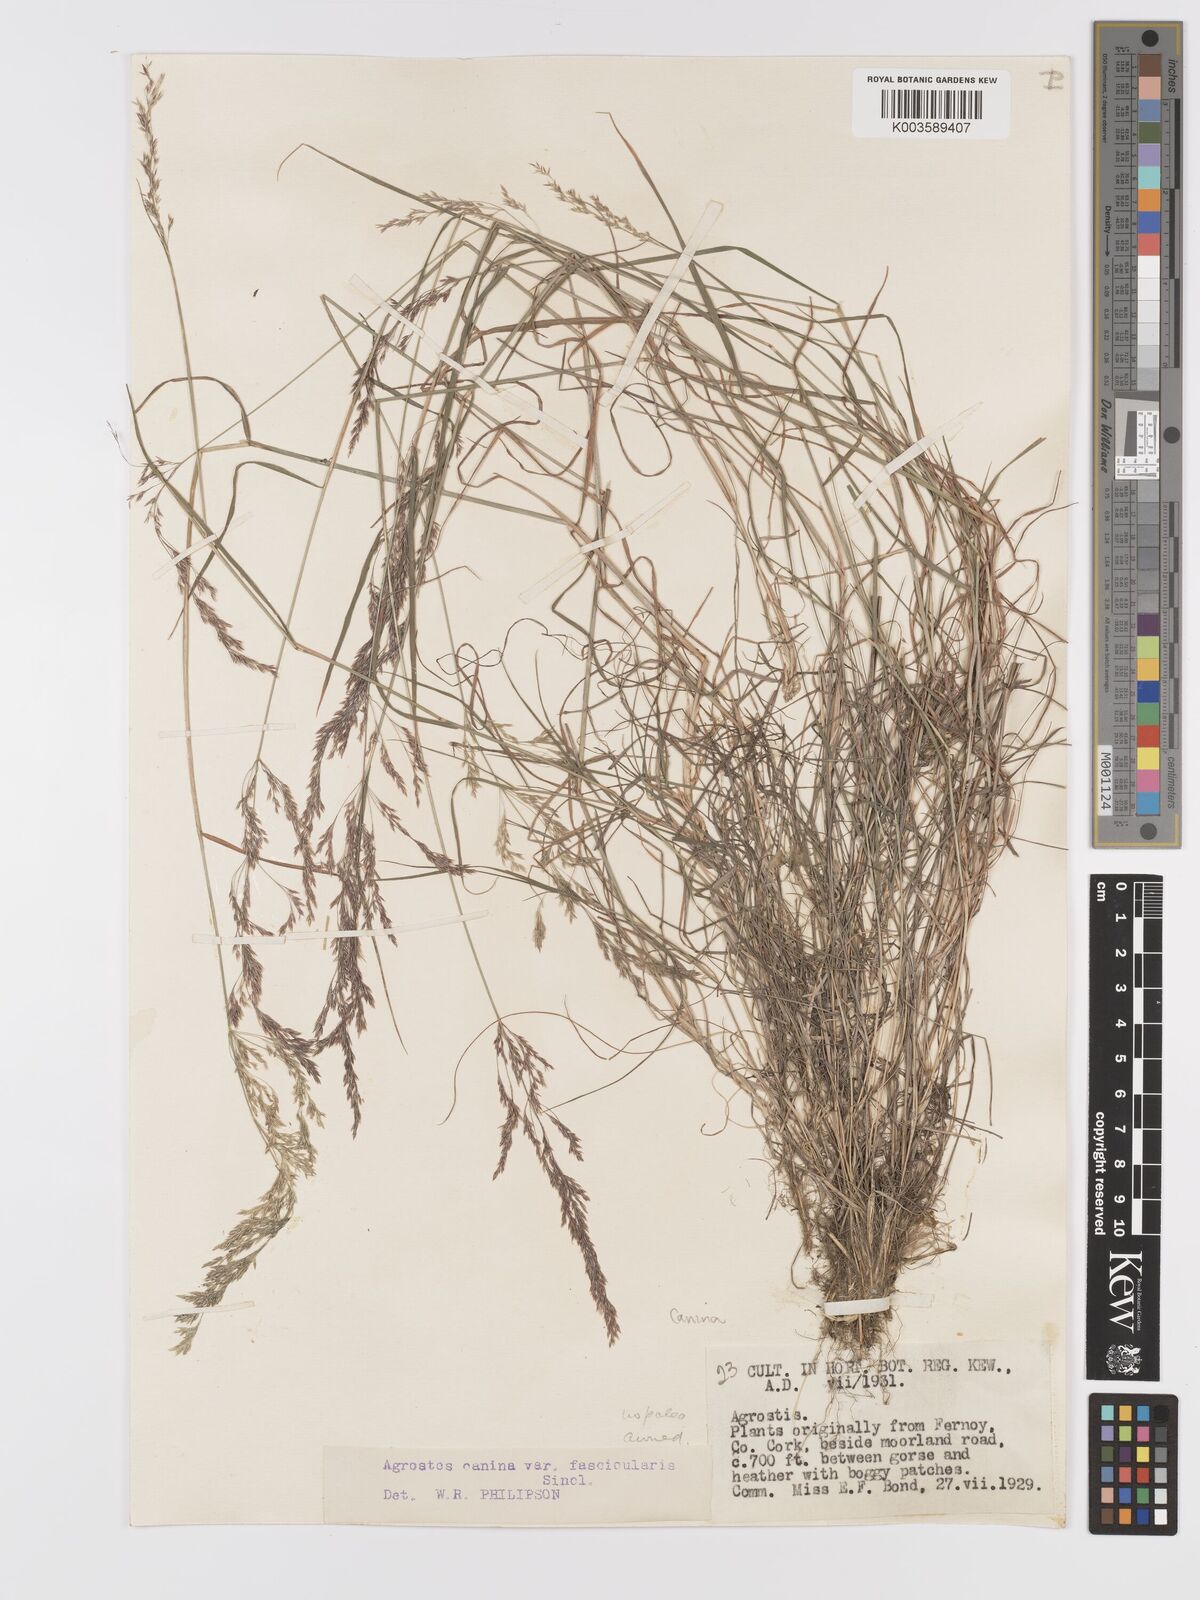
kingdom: Plantae
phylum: Tracheophyta
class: Liliopsida
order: Poales
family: Poaceae
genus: Agrostis
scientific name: Agrostis canina
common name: Velvet bent
